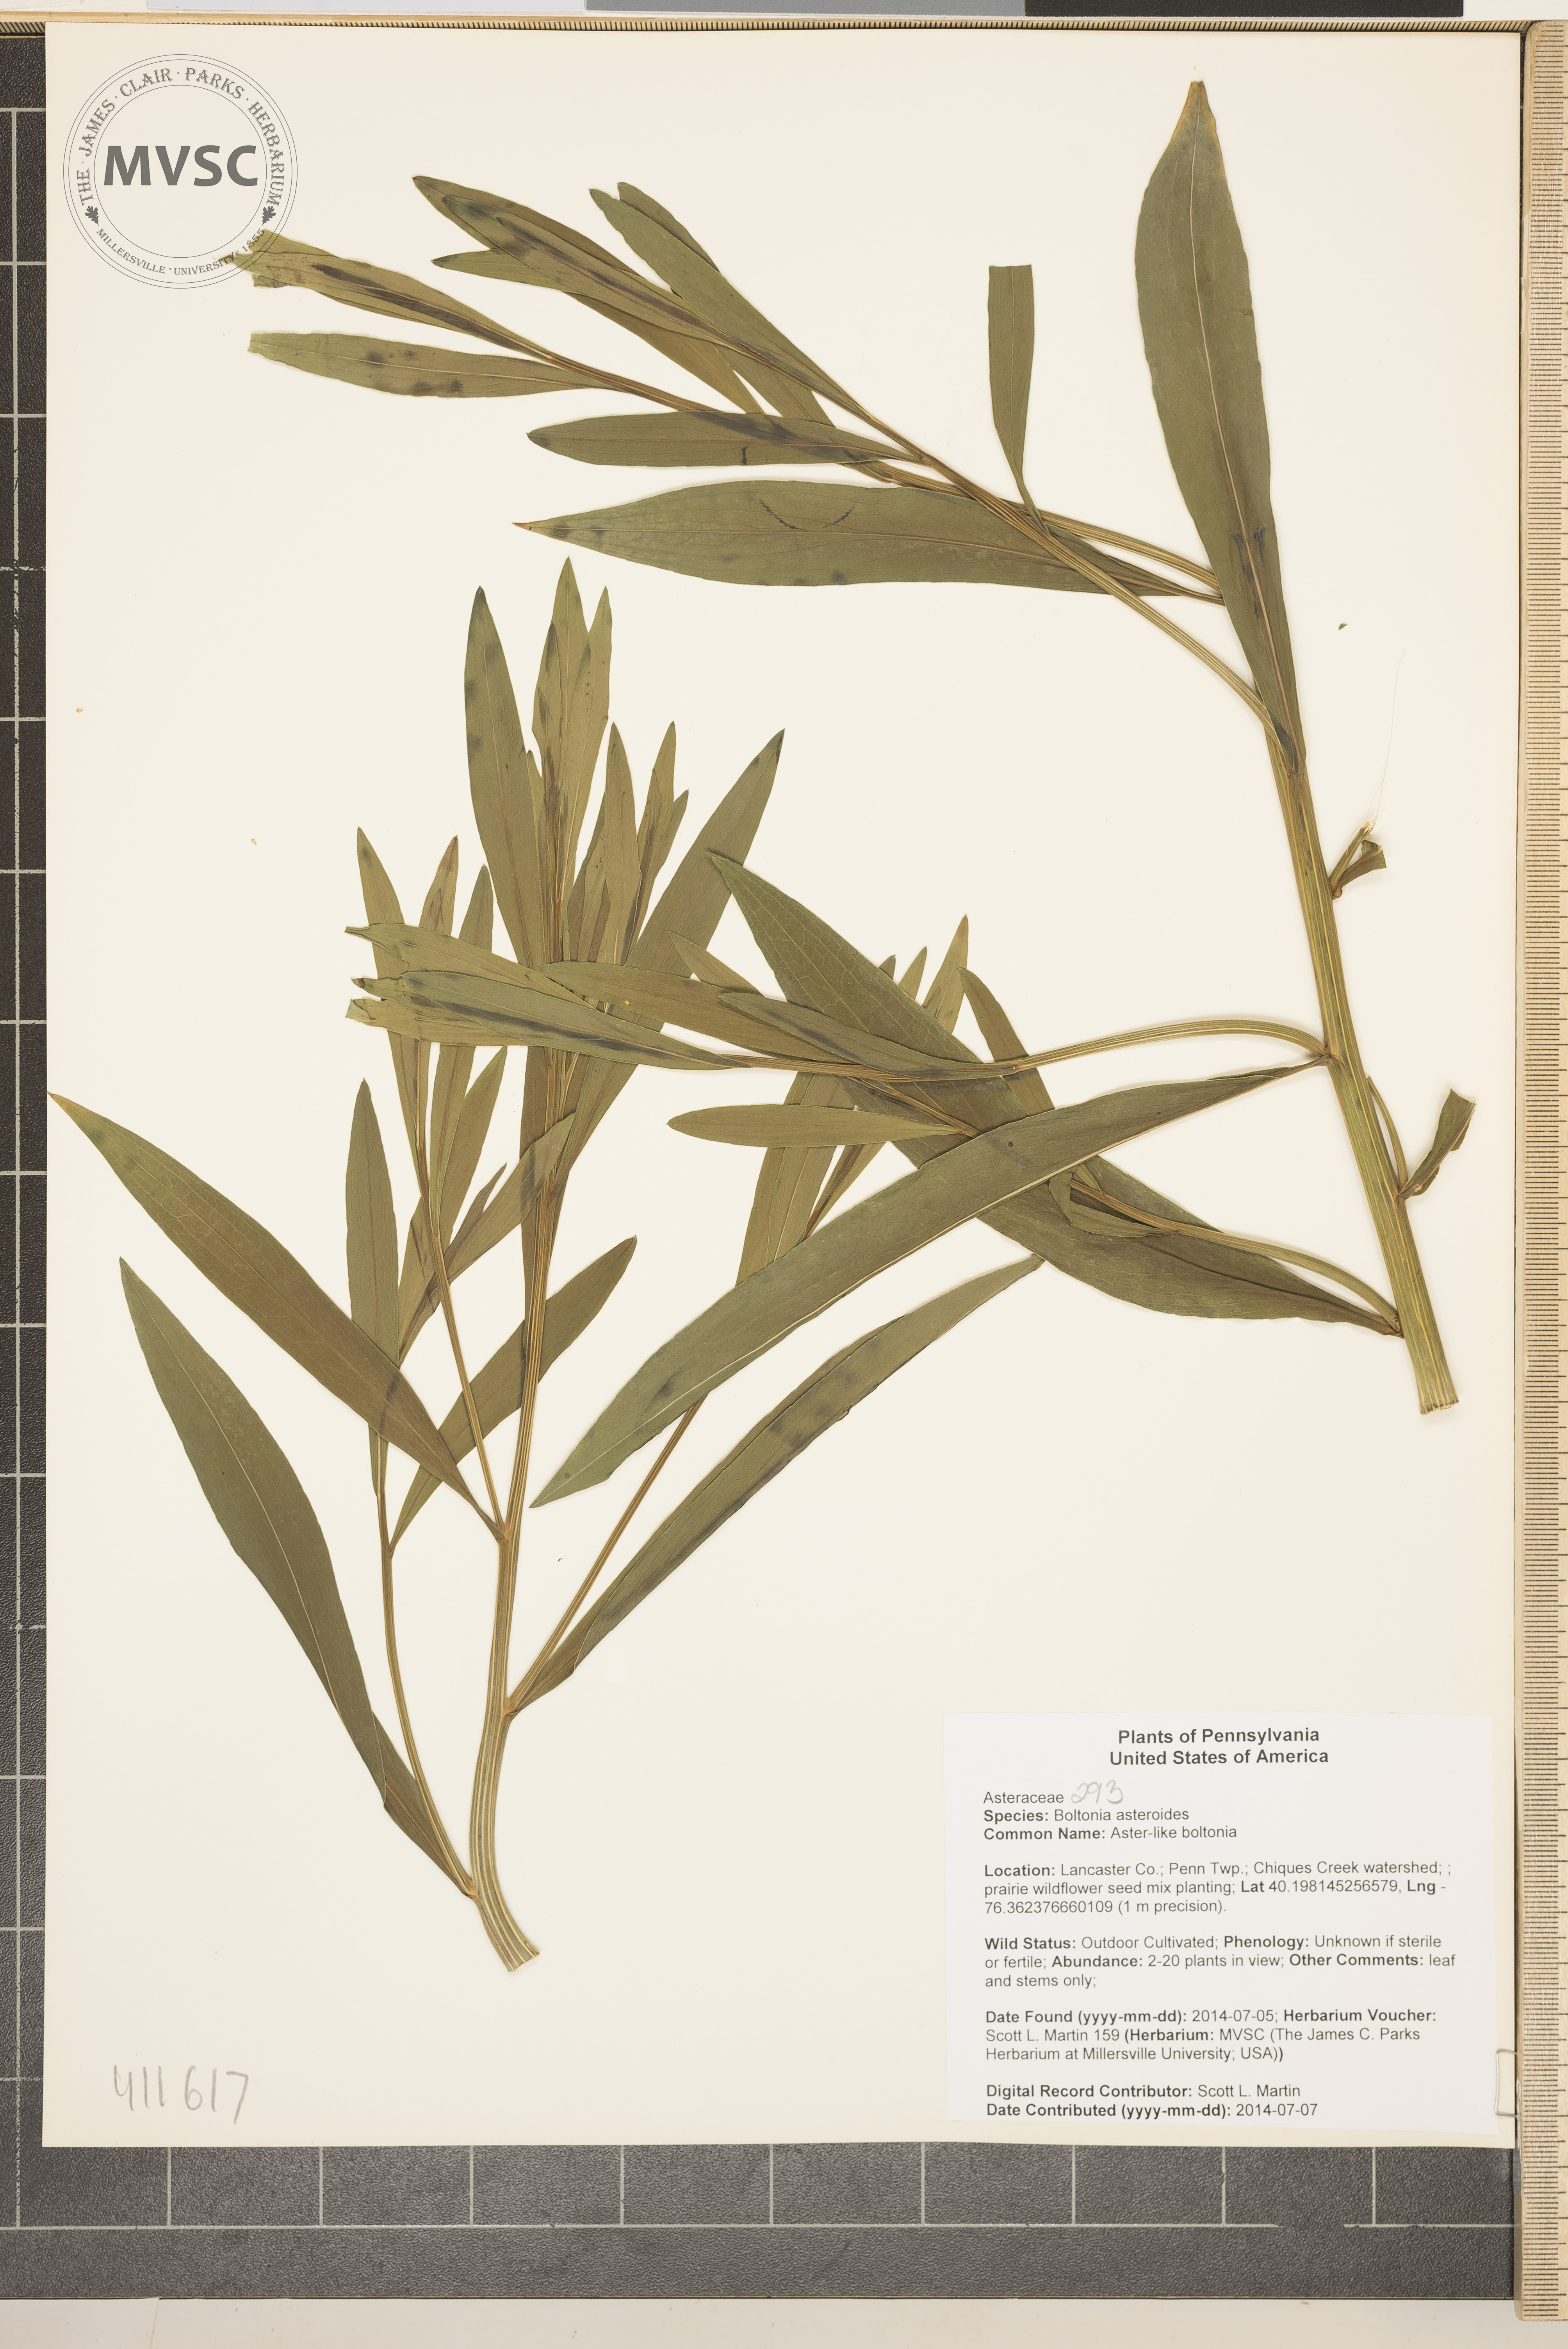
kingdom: Plantae
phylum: Tracheophyta
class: Magnoliopsida
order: Asterales
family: Asteraceae
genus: Boltonia
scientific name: Boltonia asteroides
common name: Aster-like boltonia
